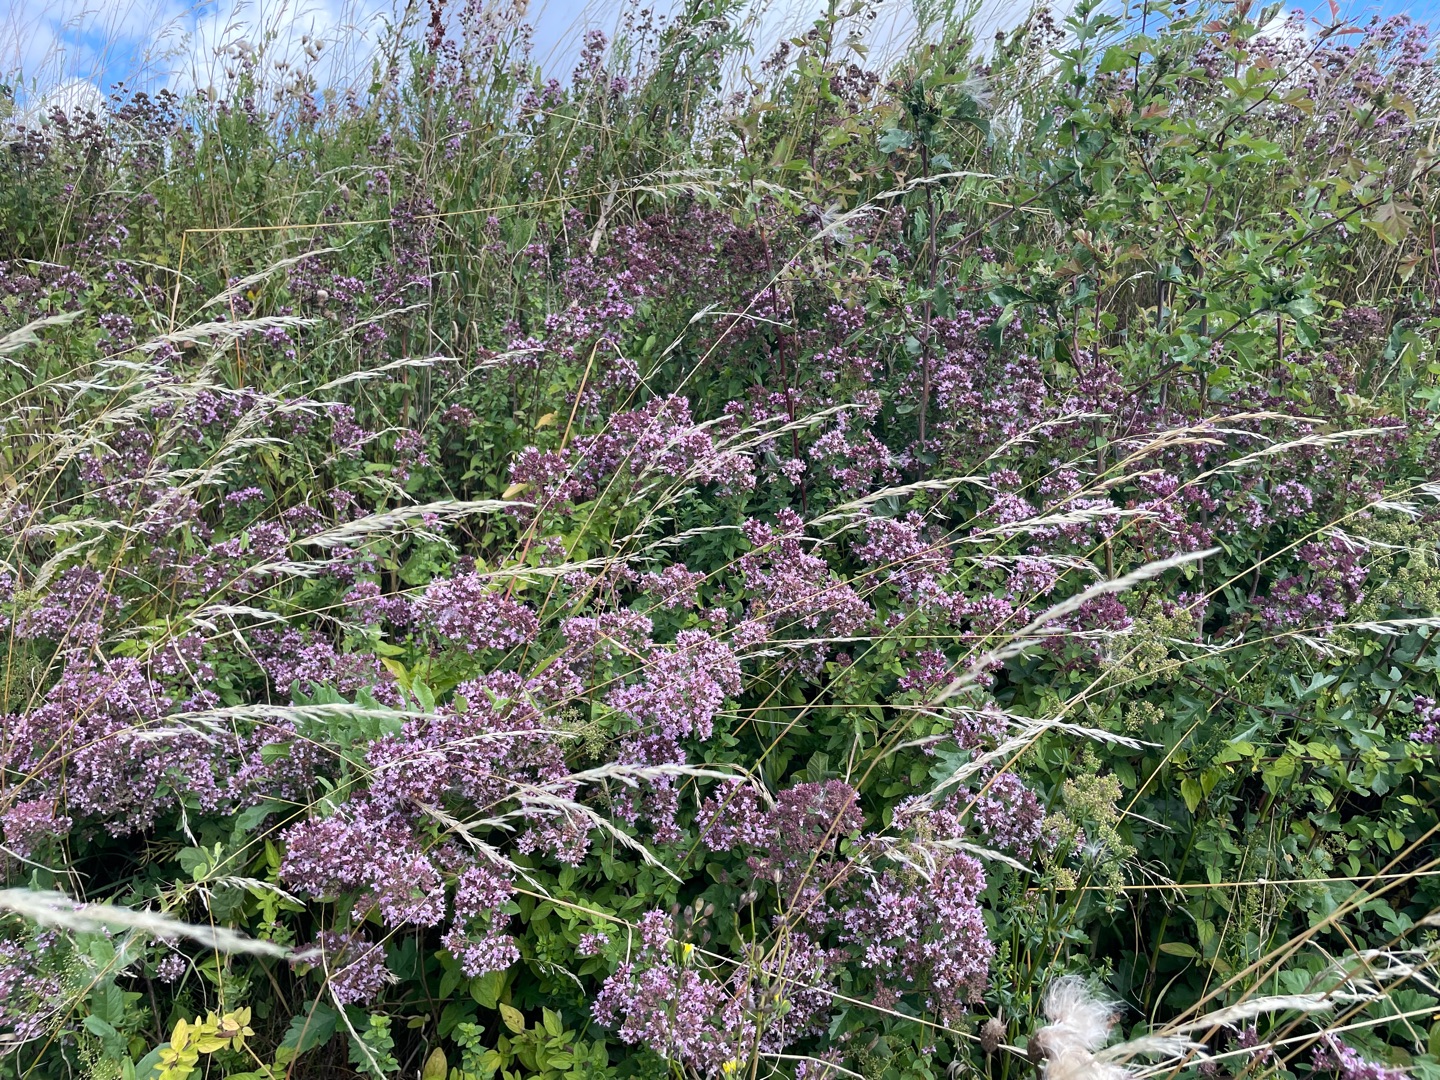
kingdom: Plantae
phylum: Tracheophyta
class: Magnoliopsida
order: Lamiales
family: Lamiaceae
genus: Origanum
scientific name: Origanum vulgare
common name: Merian
